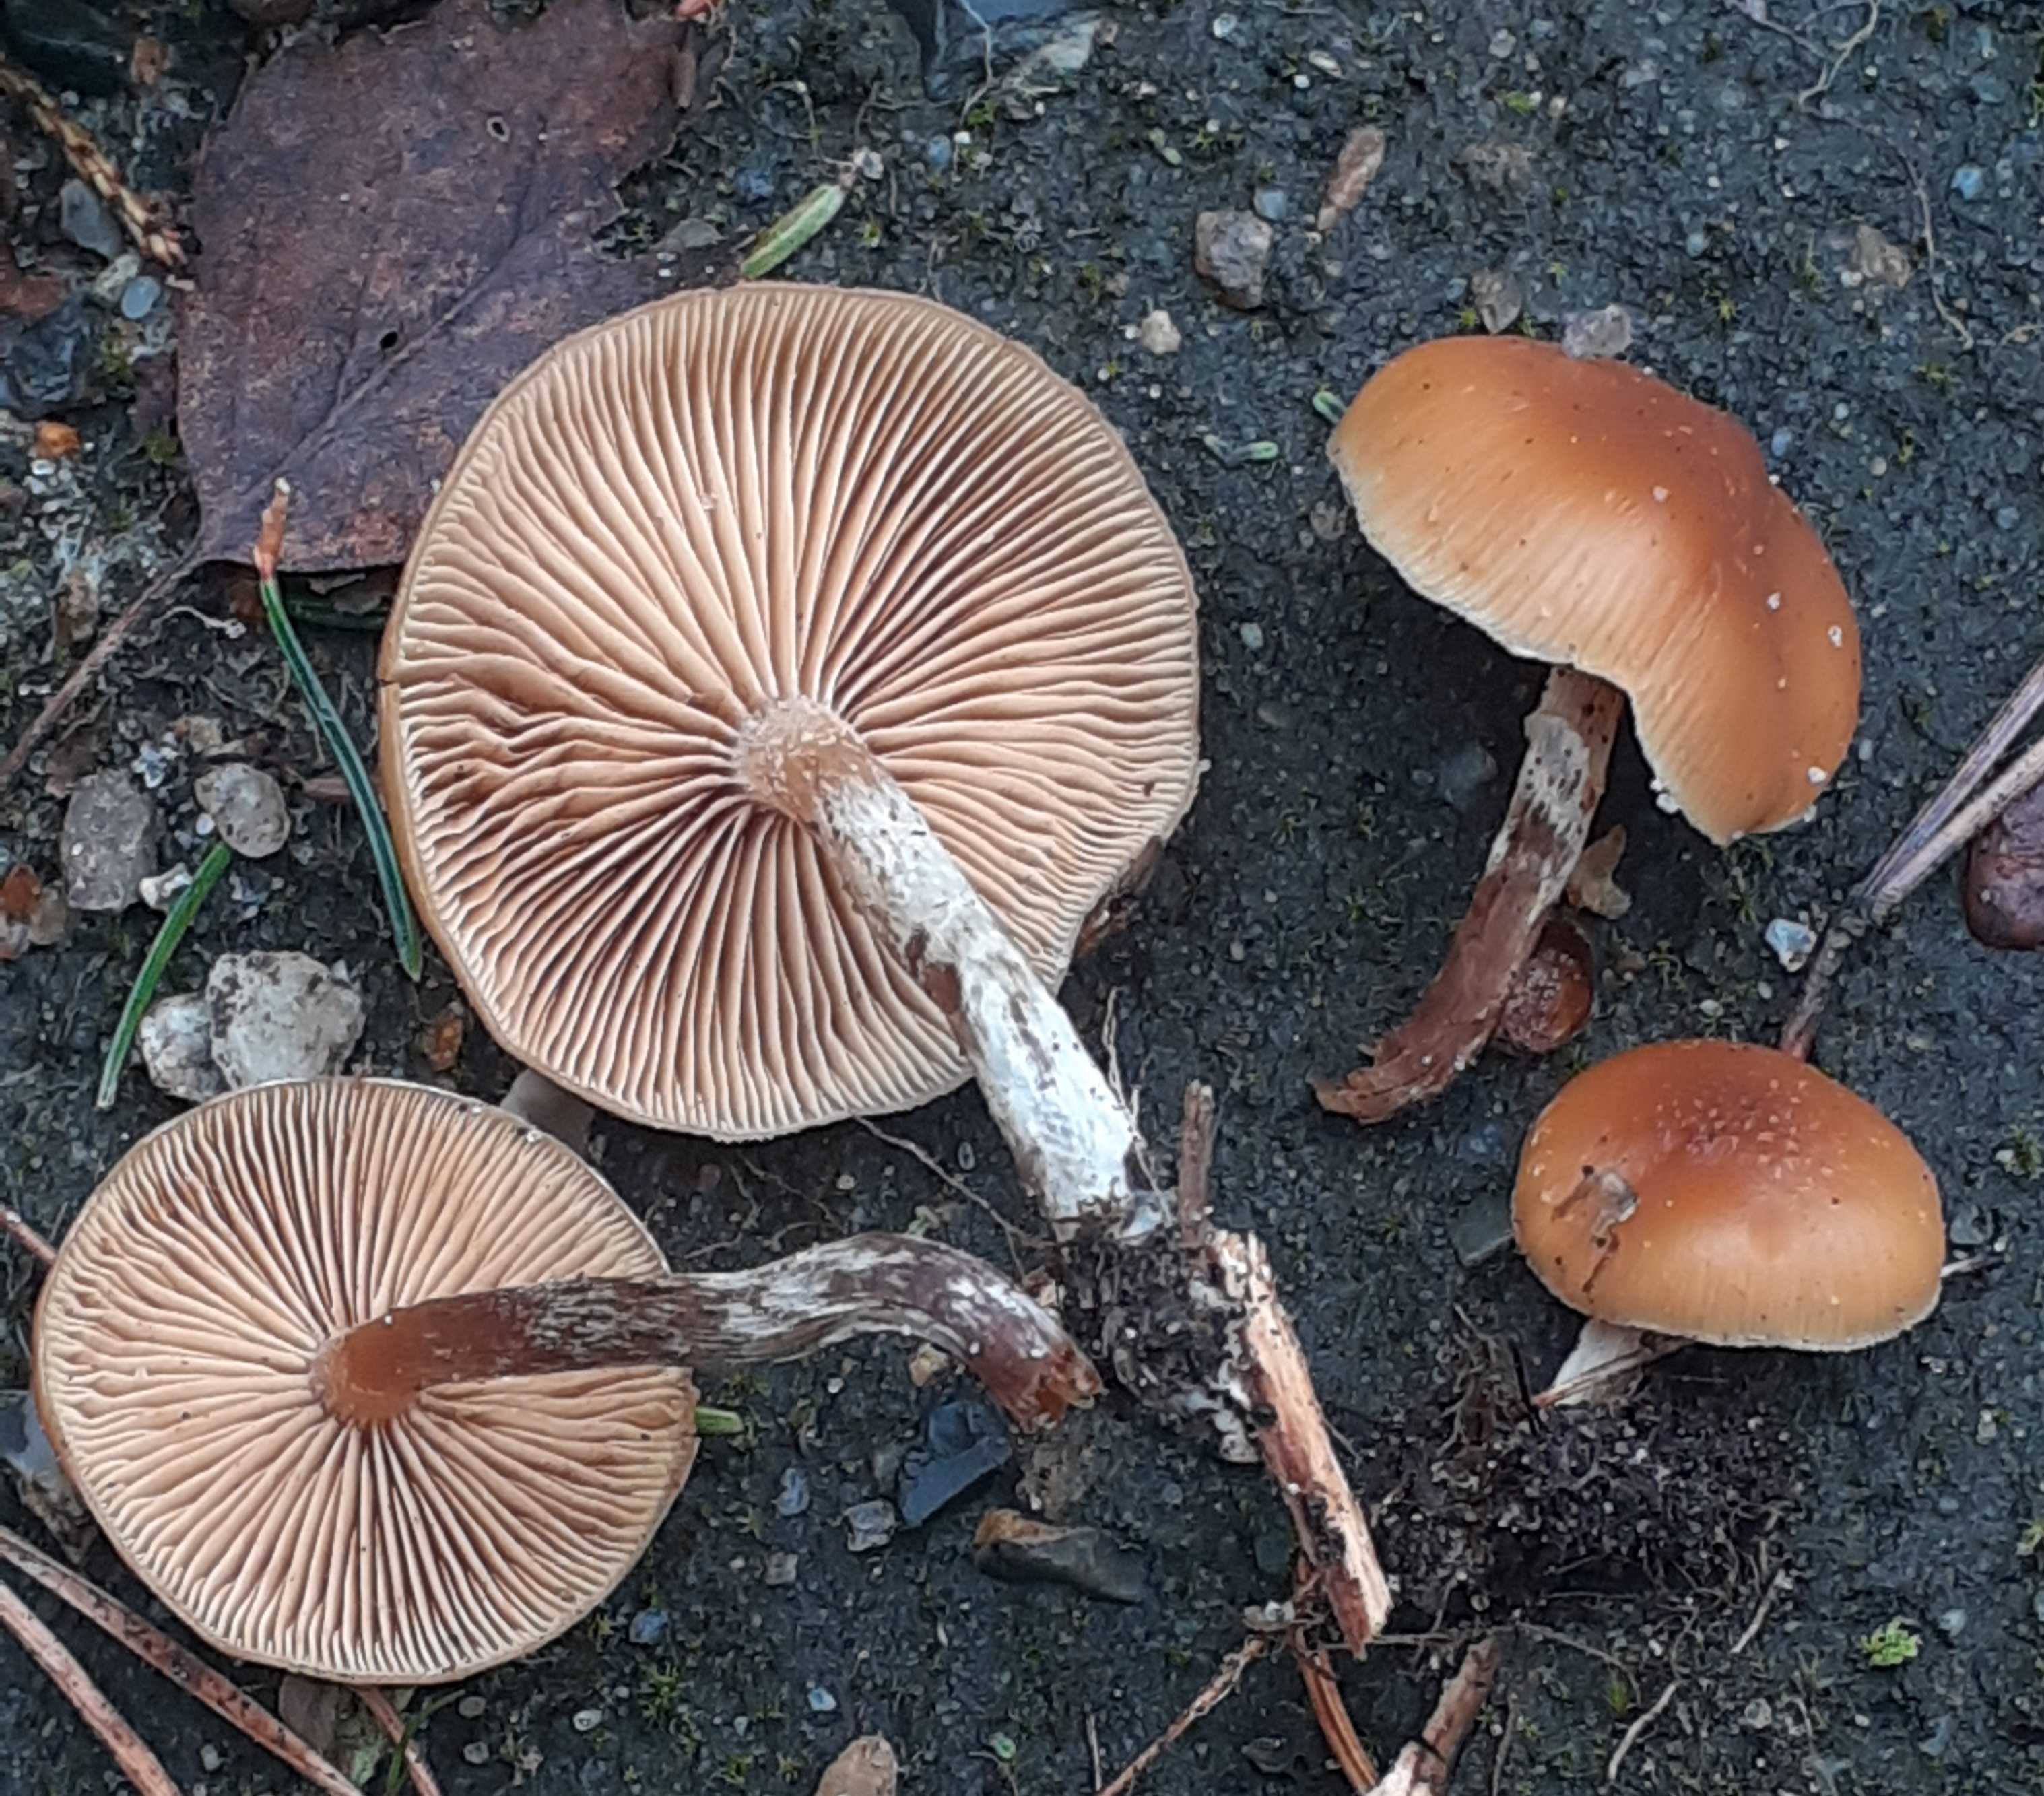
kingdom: Fungi
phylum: Basidiomycota
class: Agaricomycetes
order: Agaricales
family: Hymenogastraceae
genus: Galerina
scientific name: Galerina marginata
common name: randbæltet hjelmhat
